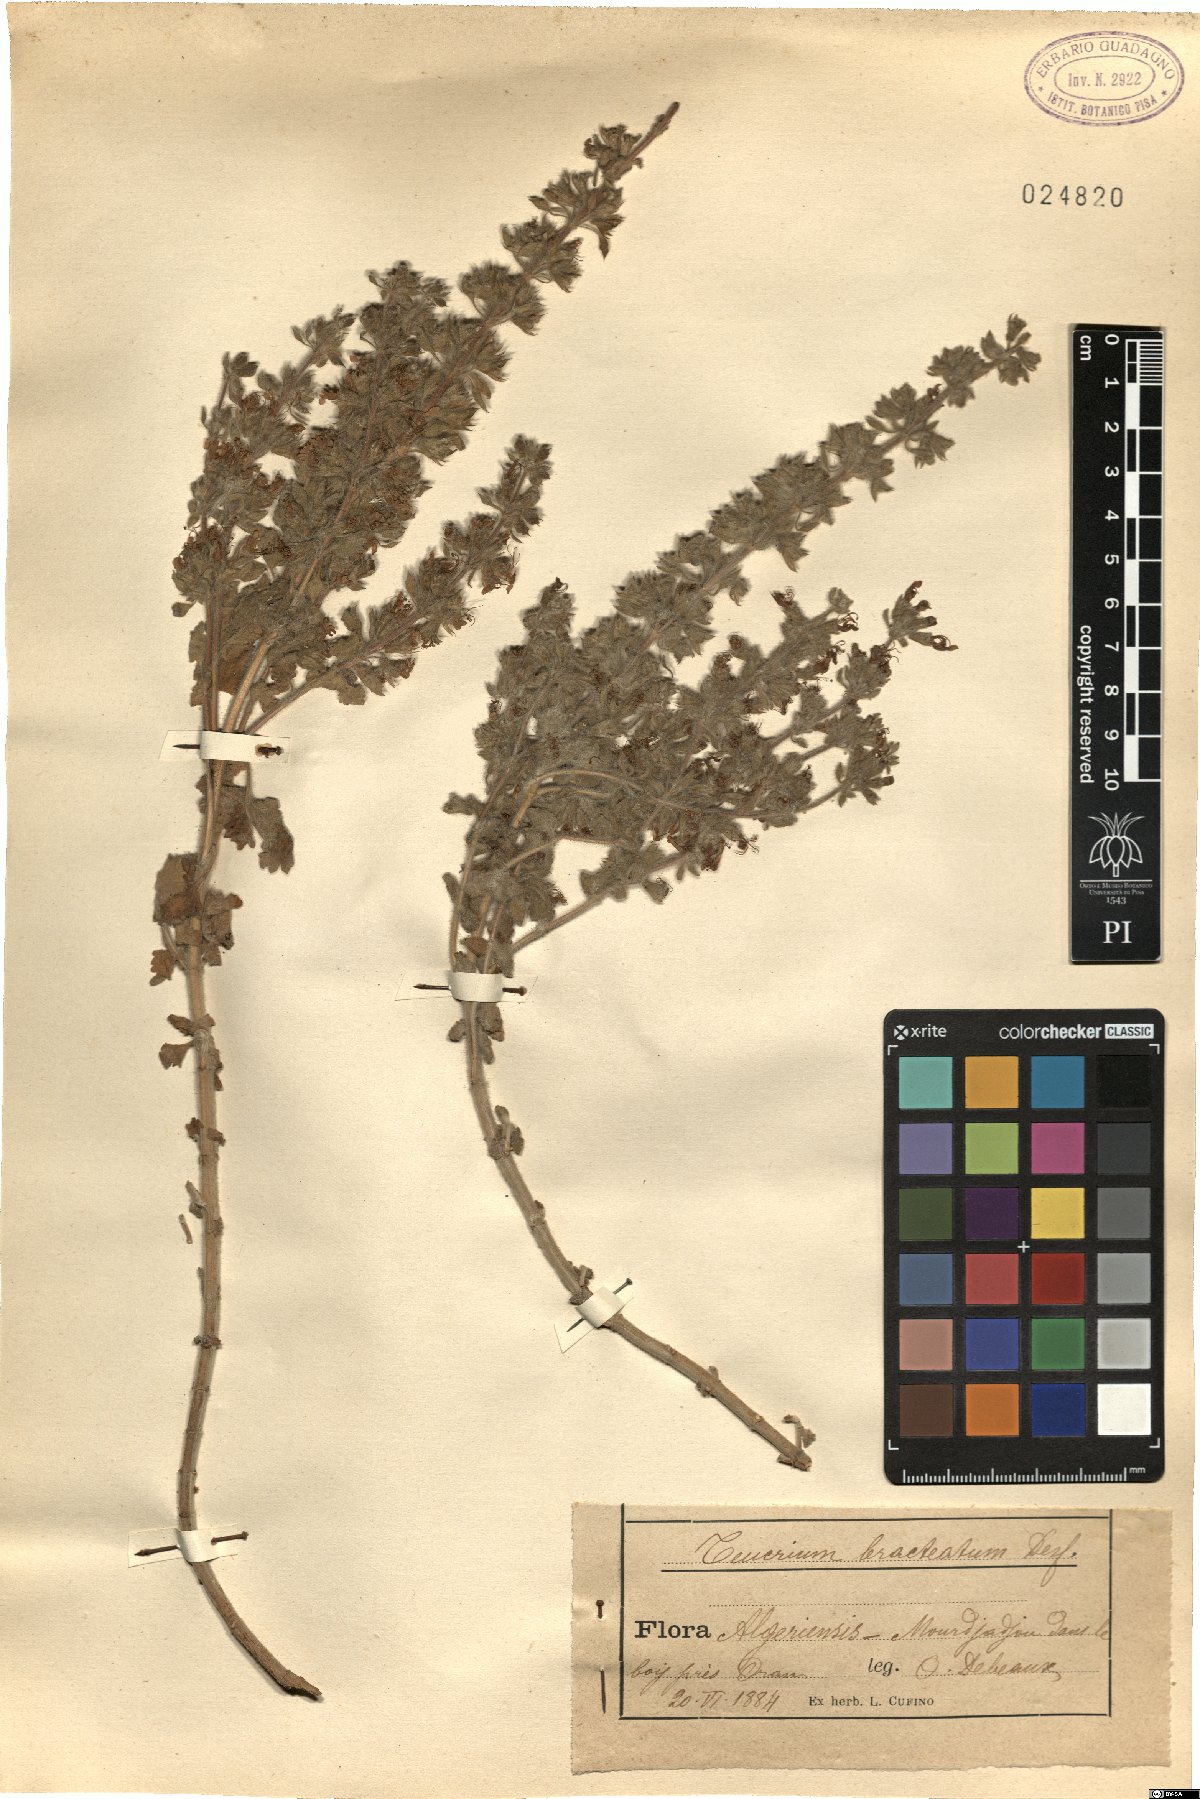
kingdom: Plantae
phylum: Tracheophyta
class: Magnoliopsida
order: Lamiales
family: Lamiaceae
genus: Teucrium
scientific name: Teucrium bracteatum
